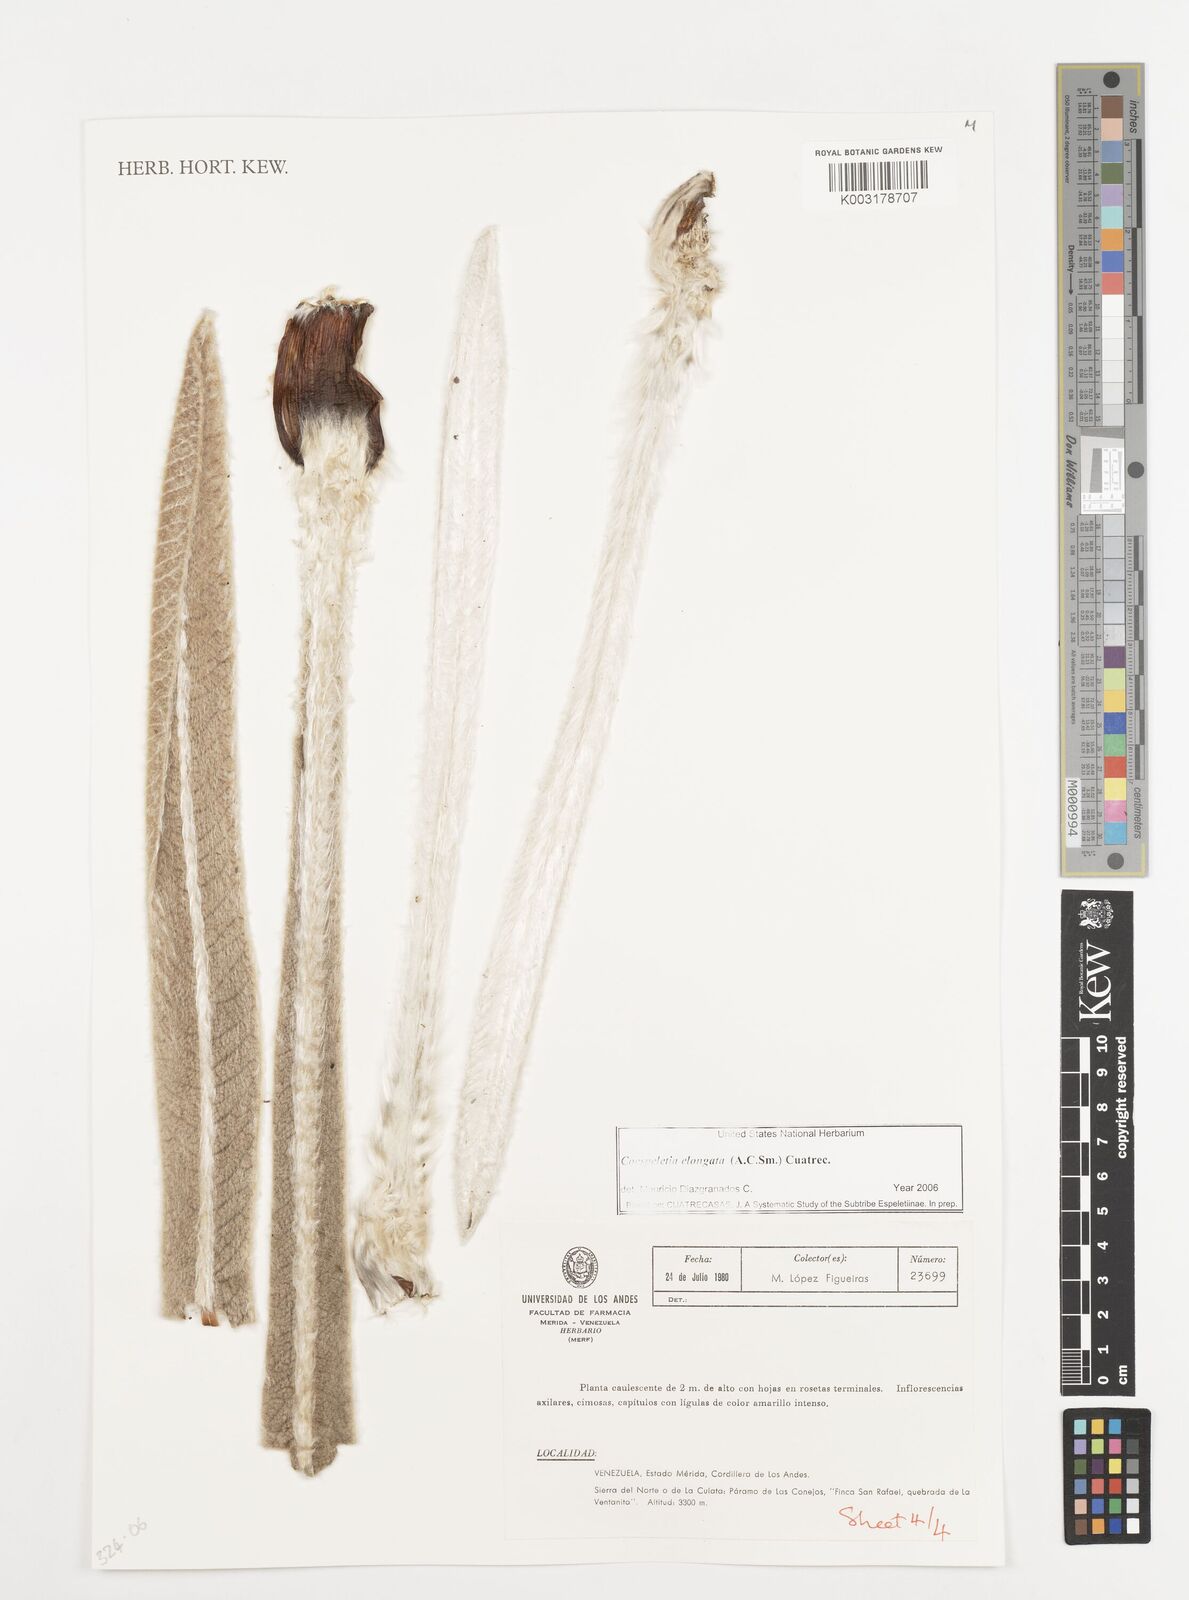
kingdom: Plantae
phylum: Tracheophyta
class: Magnoliopsida
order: Asterales
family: Asteraceae
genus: Espeletia
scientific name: Espeletia elongata
